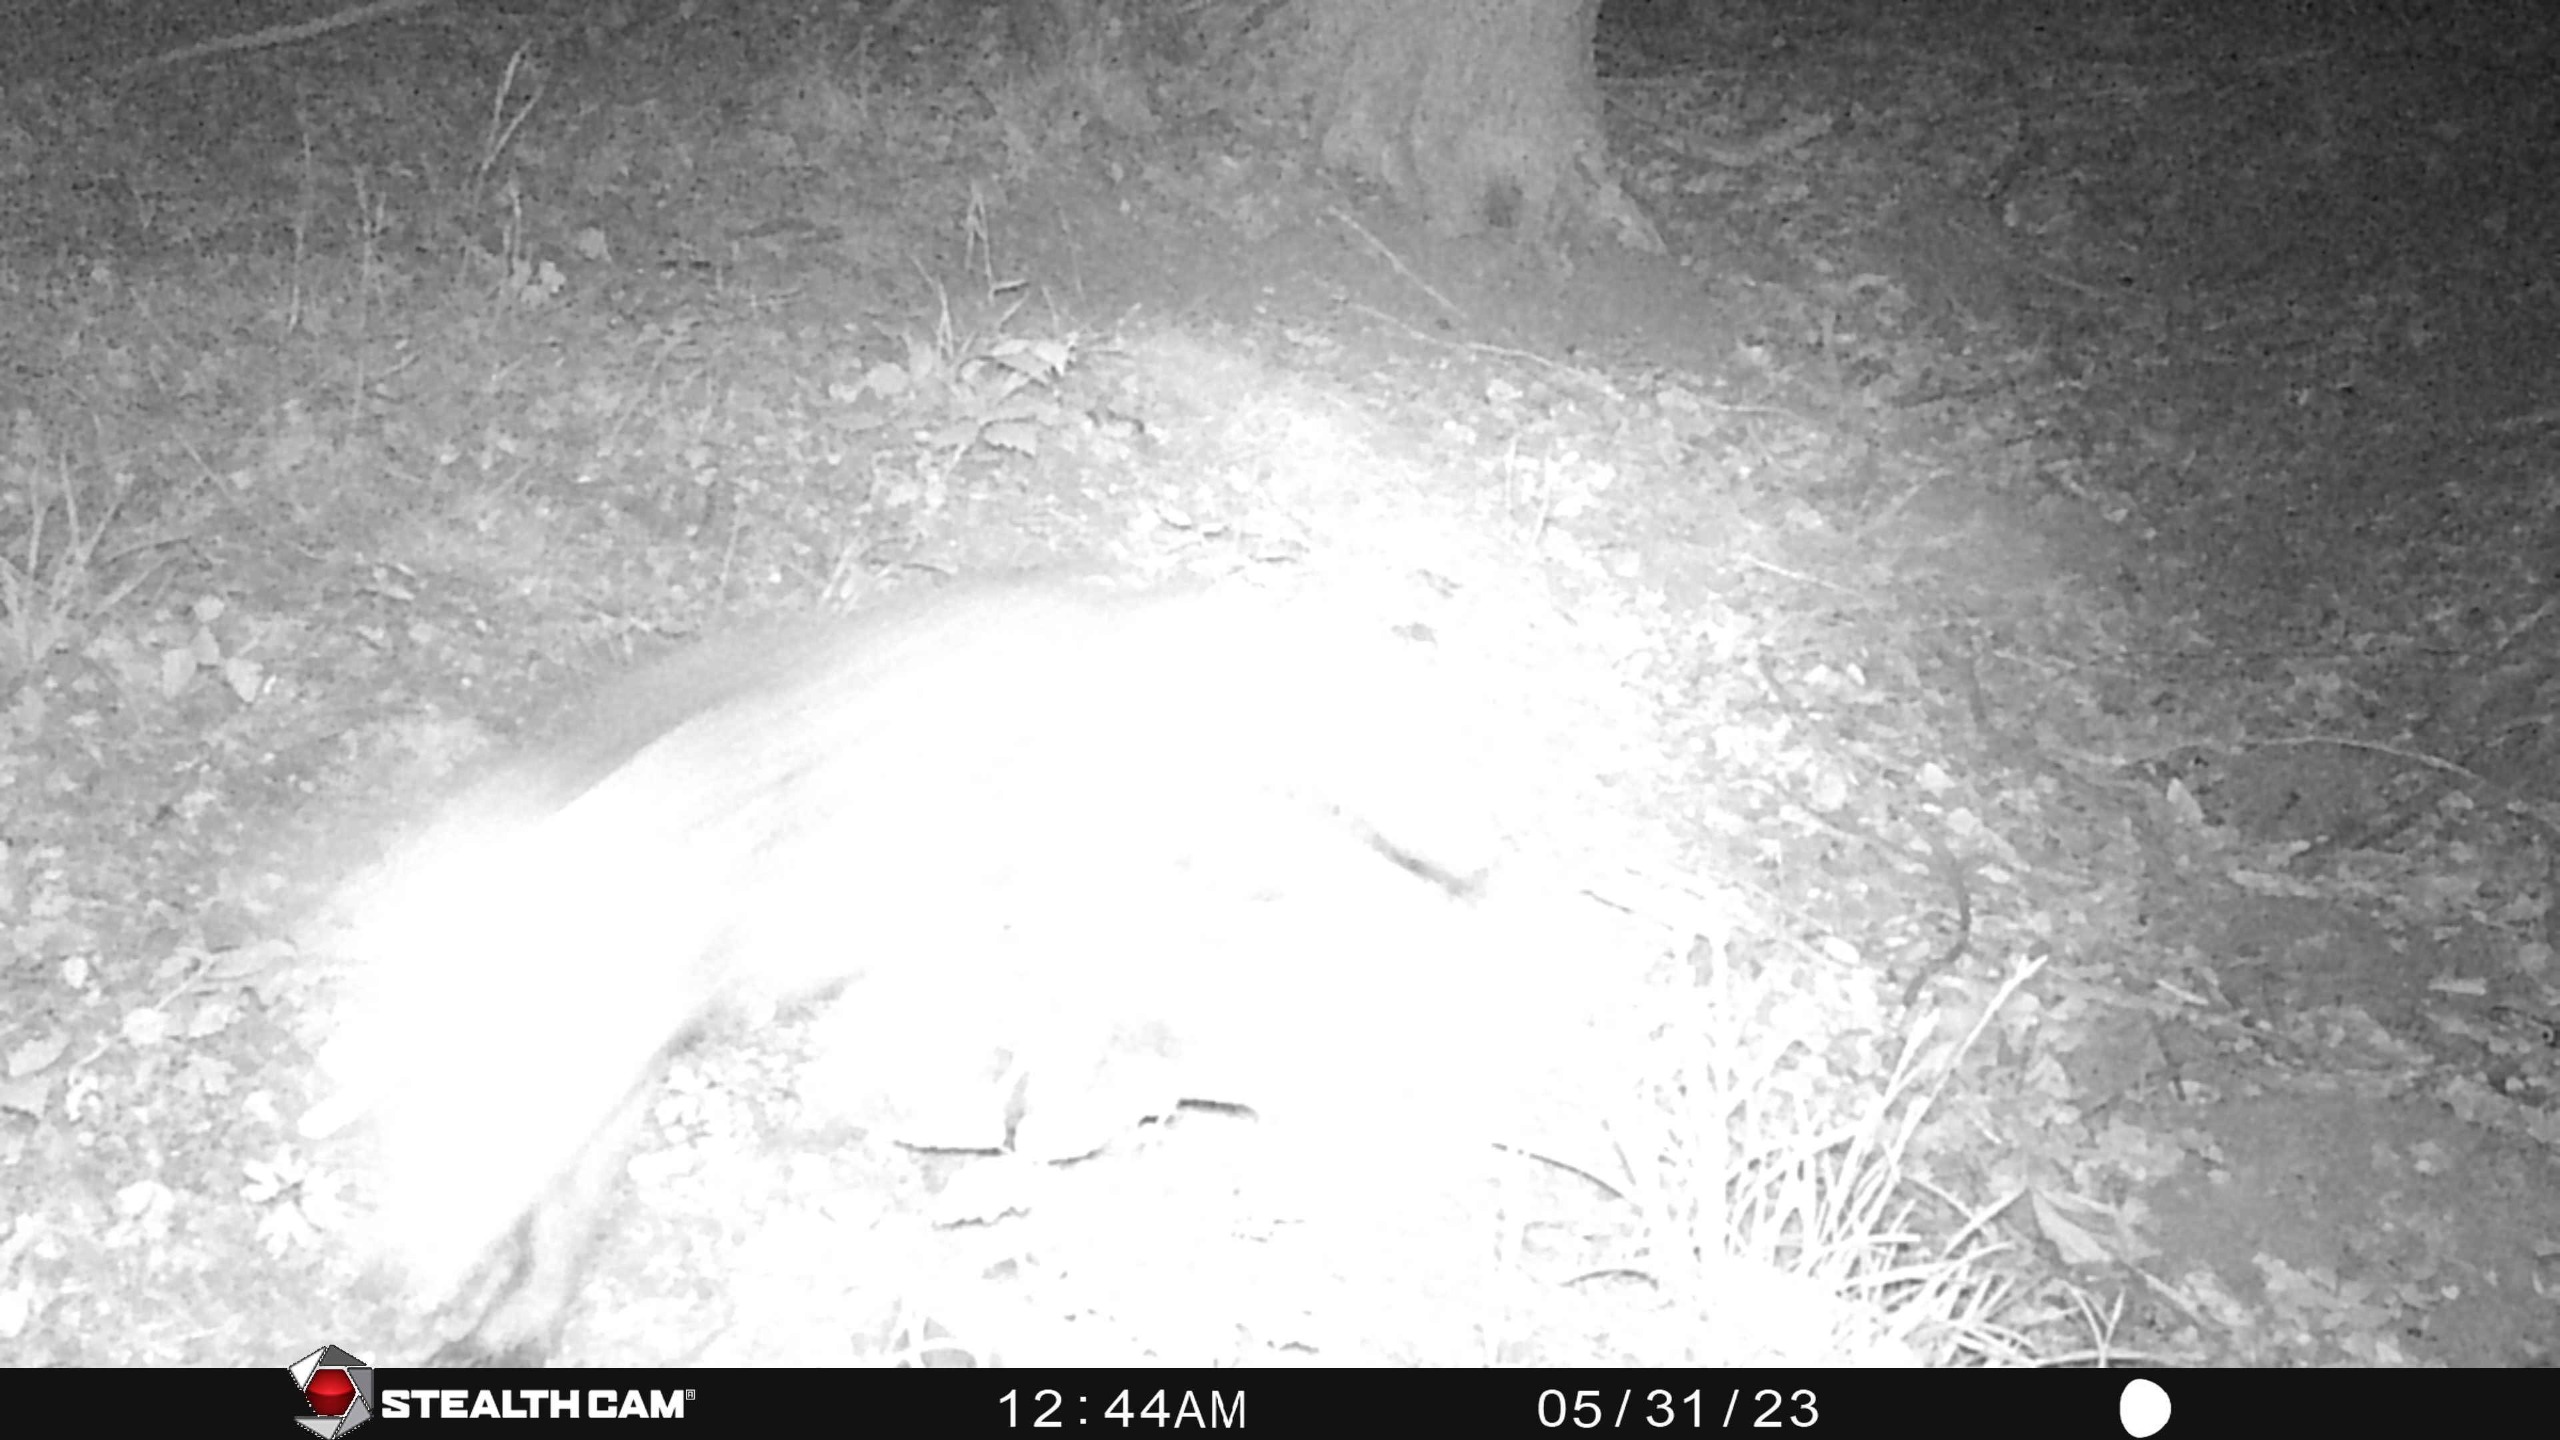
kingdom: Animalia
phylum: Chordata
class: Mammalia
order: Carnivora
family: Canidae
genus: Vulpes
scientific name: Vulpes vulpes
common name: Ræv
